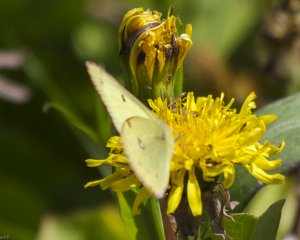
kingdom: Animalia
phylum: Arthropoda
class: Insecta
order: Lepidoptera
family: Pieridae
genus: Colias
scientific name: Colias philodice
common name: Clouded Sulphur
